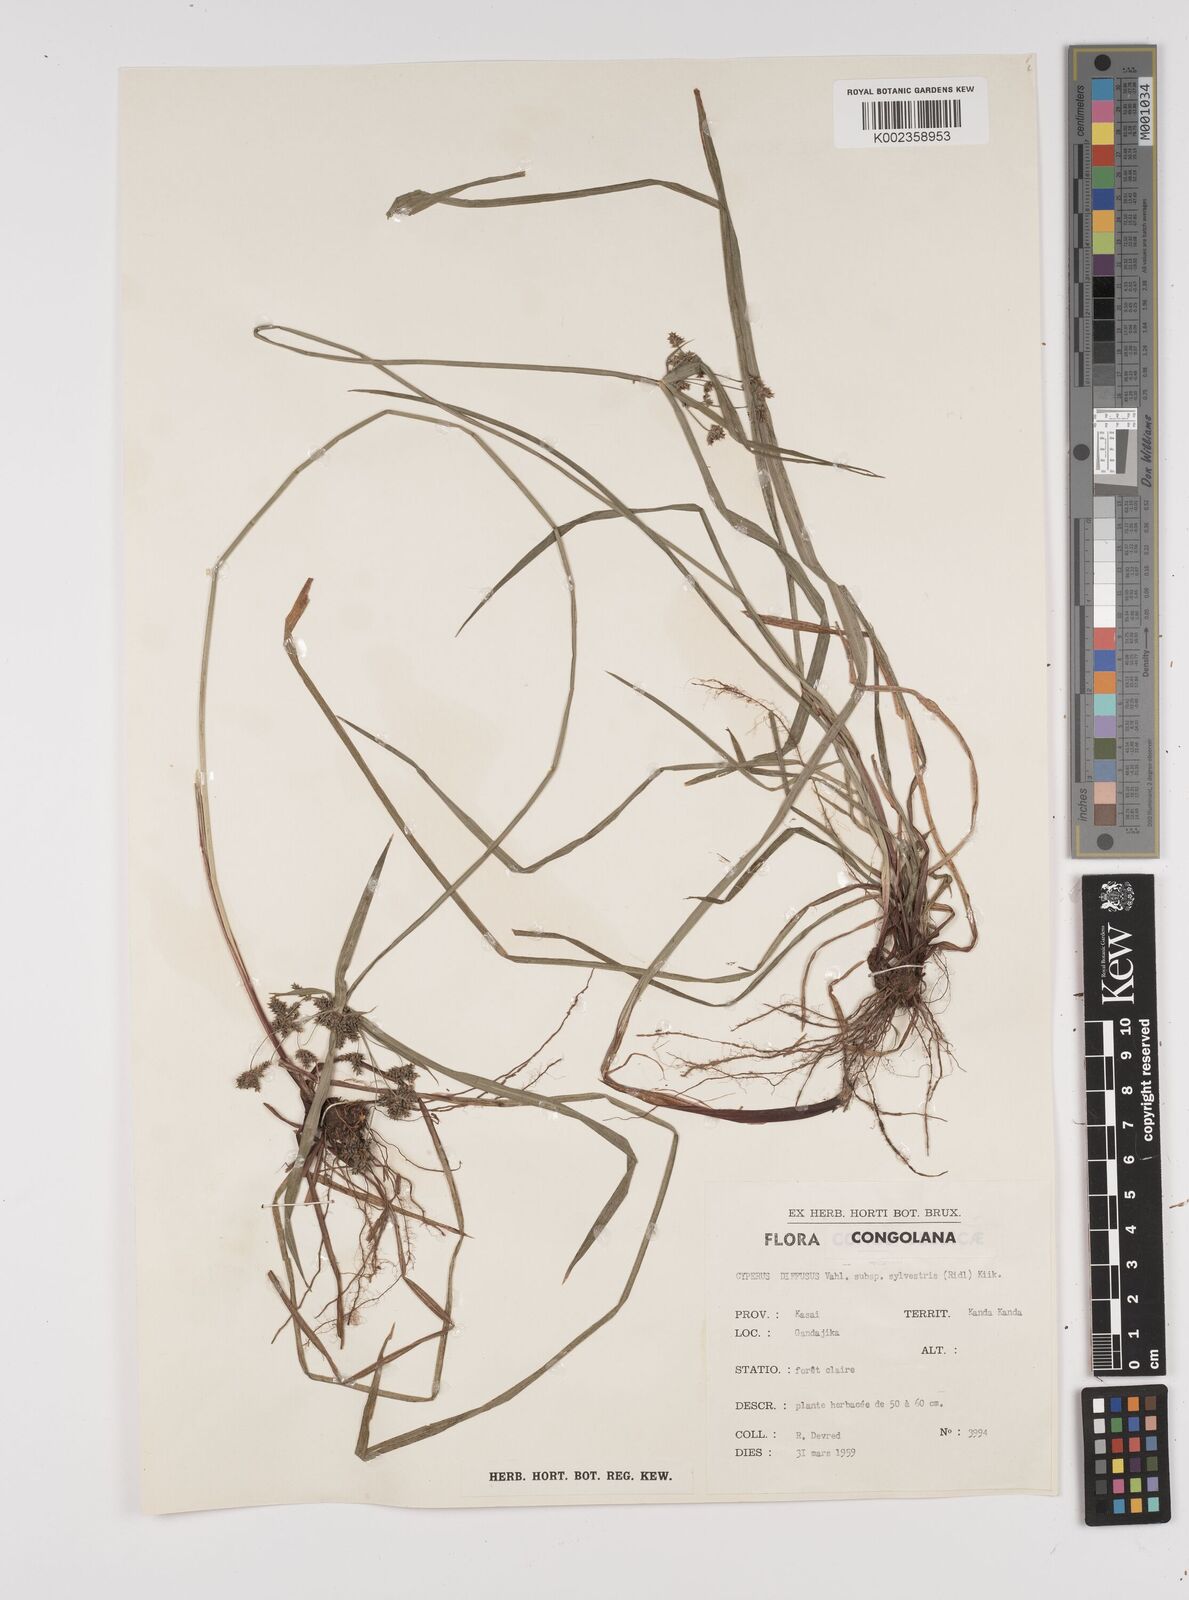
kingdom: Plantae
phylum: Tracheophyta
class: Liliopsida
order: Poales
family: Cyperaceae
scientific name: Cyperaceae
